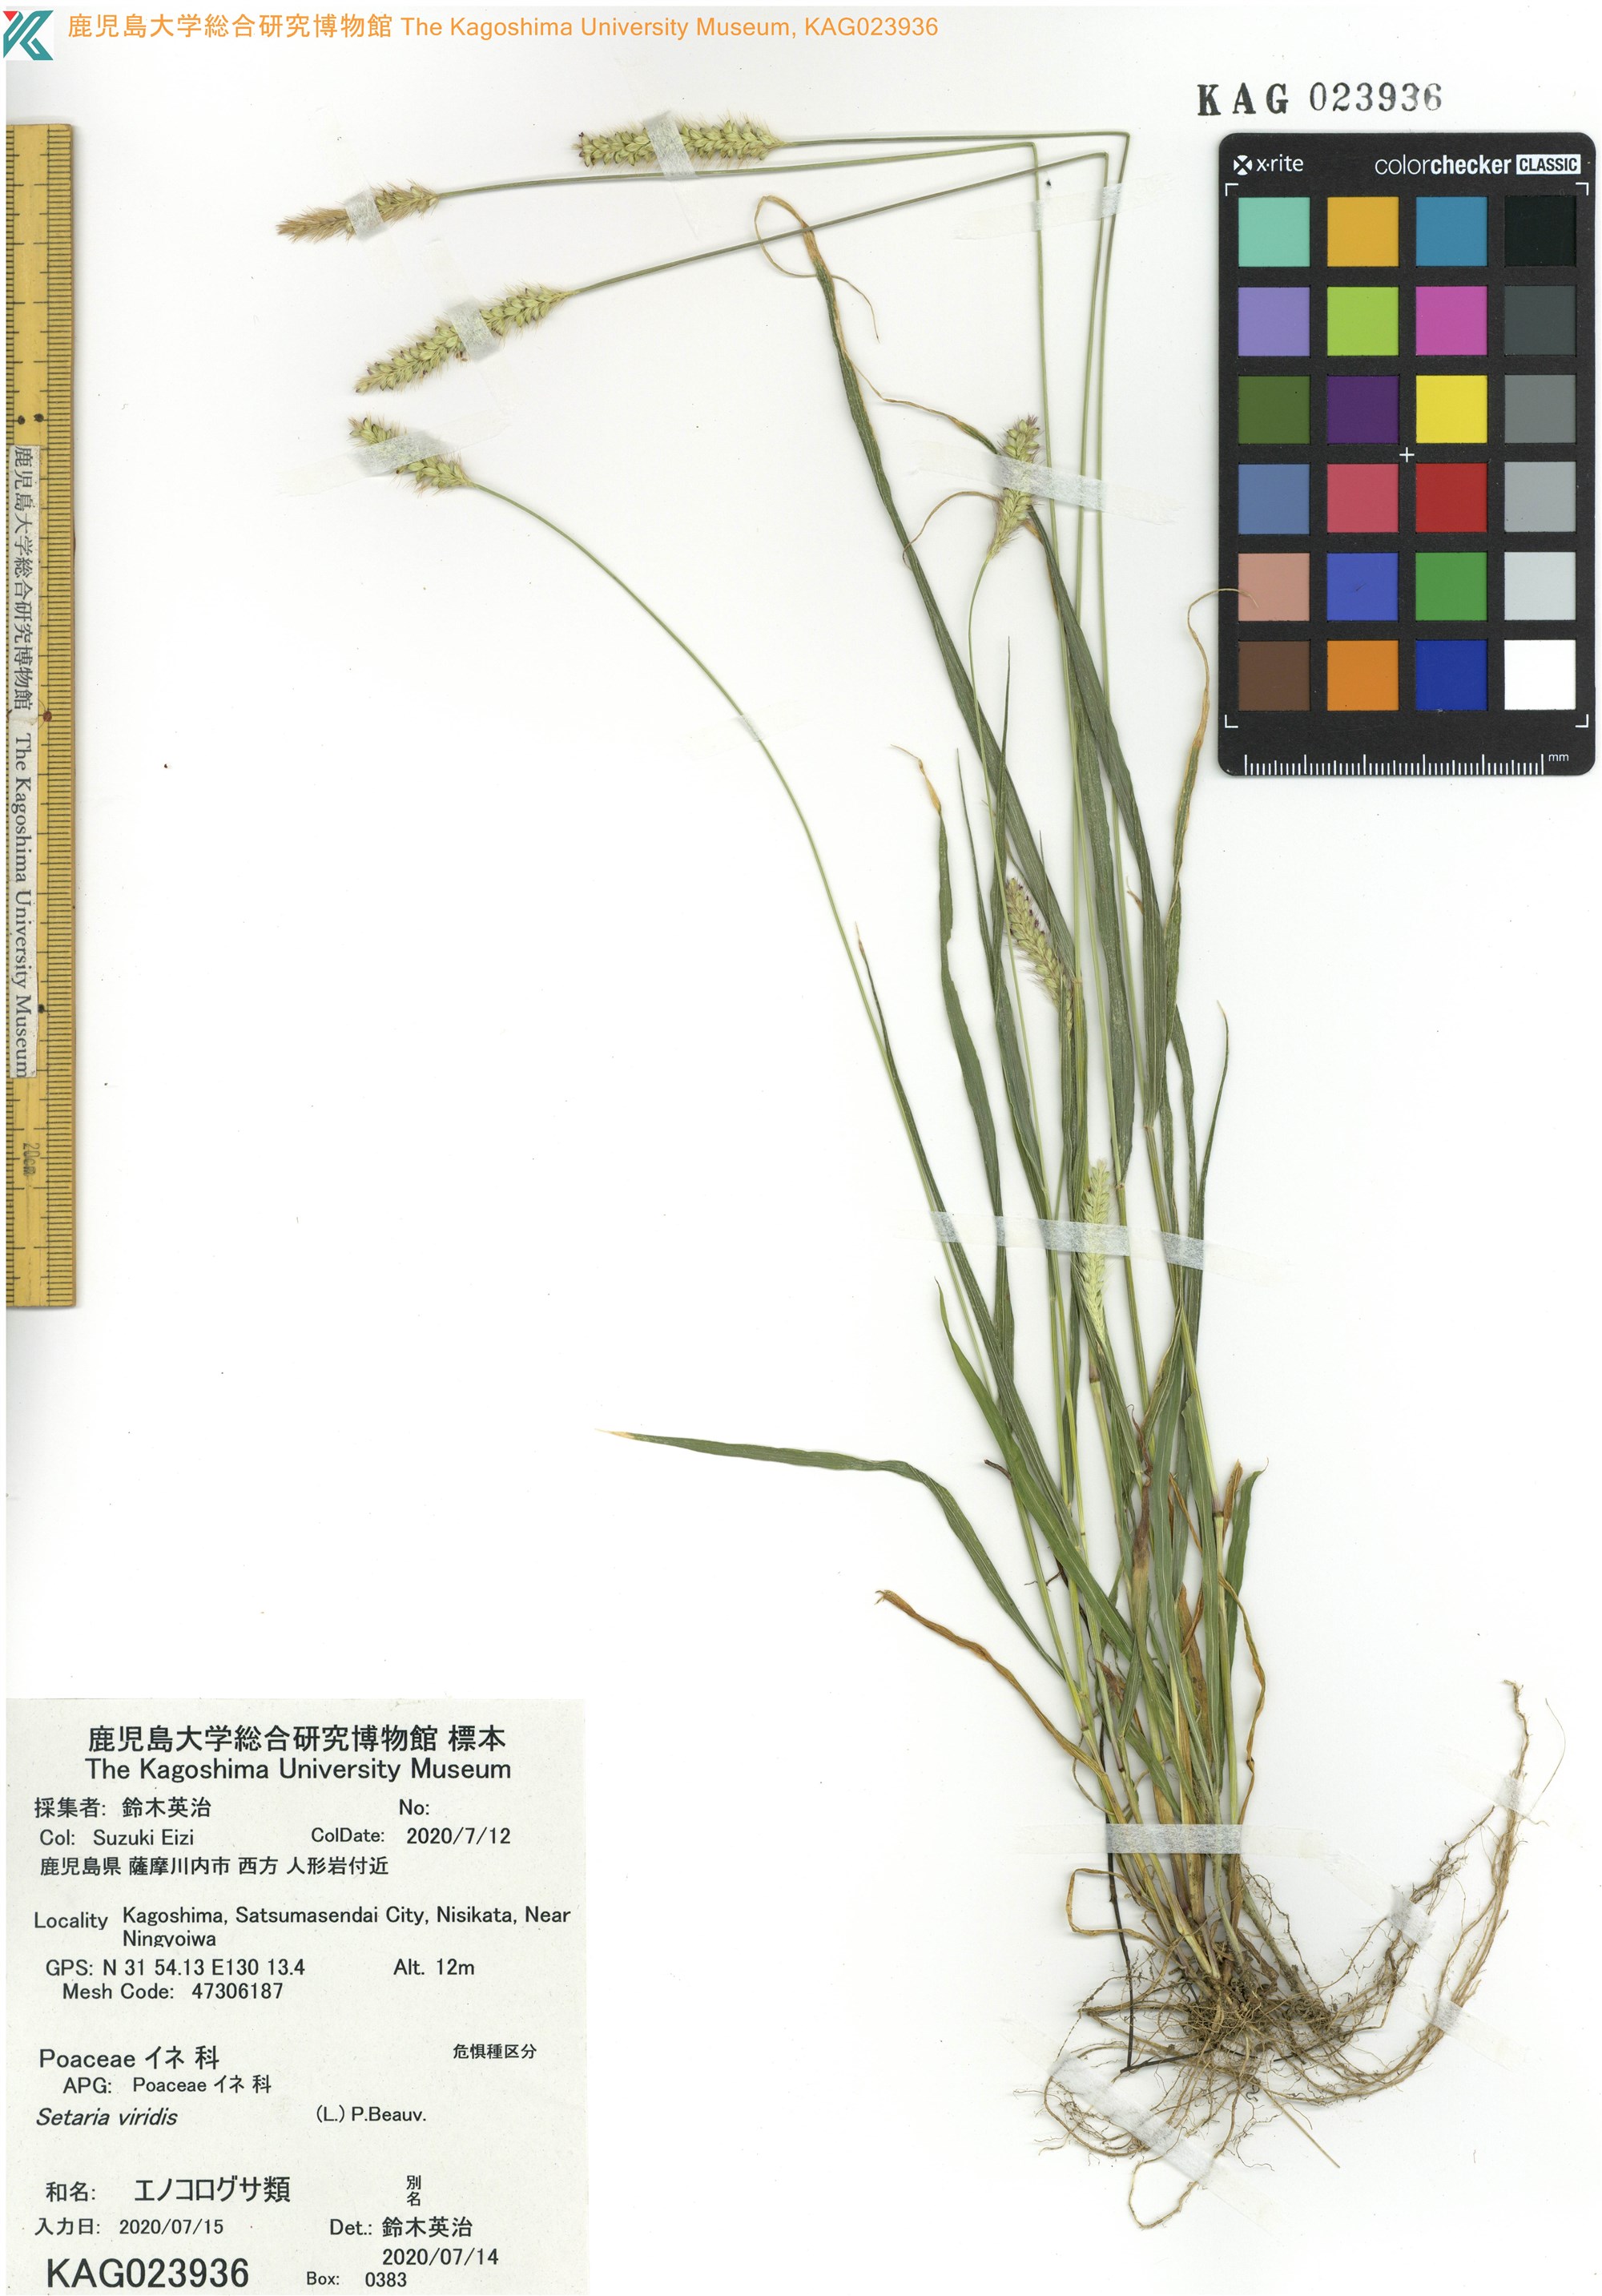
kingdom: Plantae
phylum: Tracheophyta
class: Liliopsida
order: Poales
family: Poaceae
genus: Setaria
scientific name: Setaria pumila
